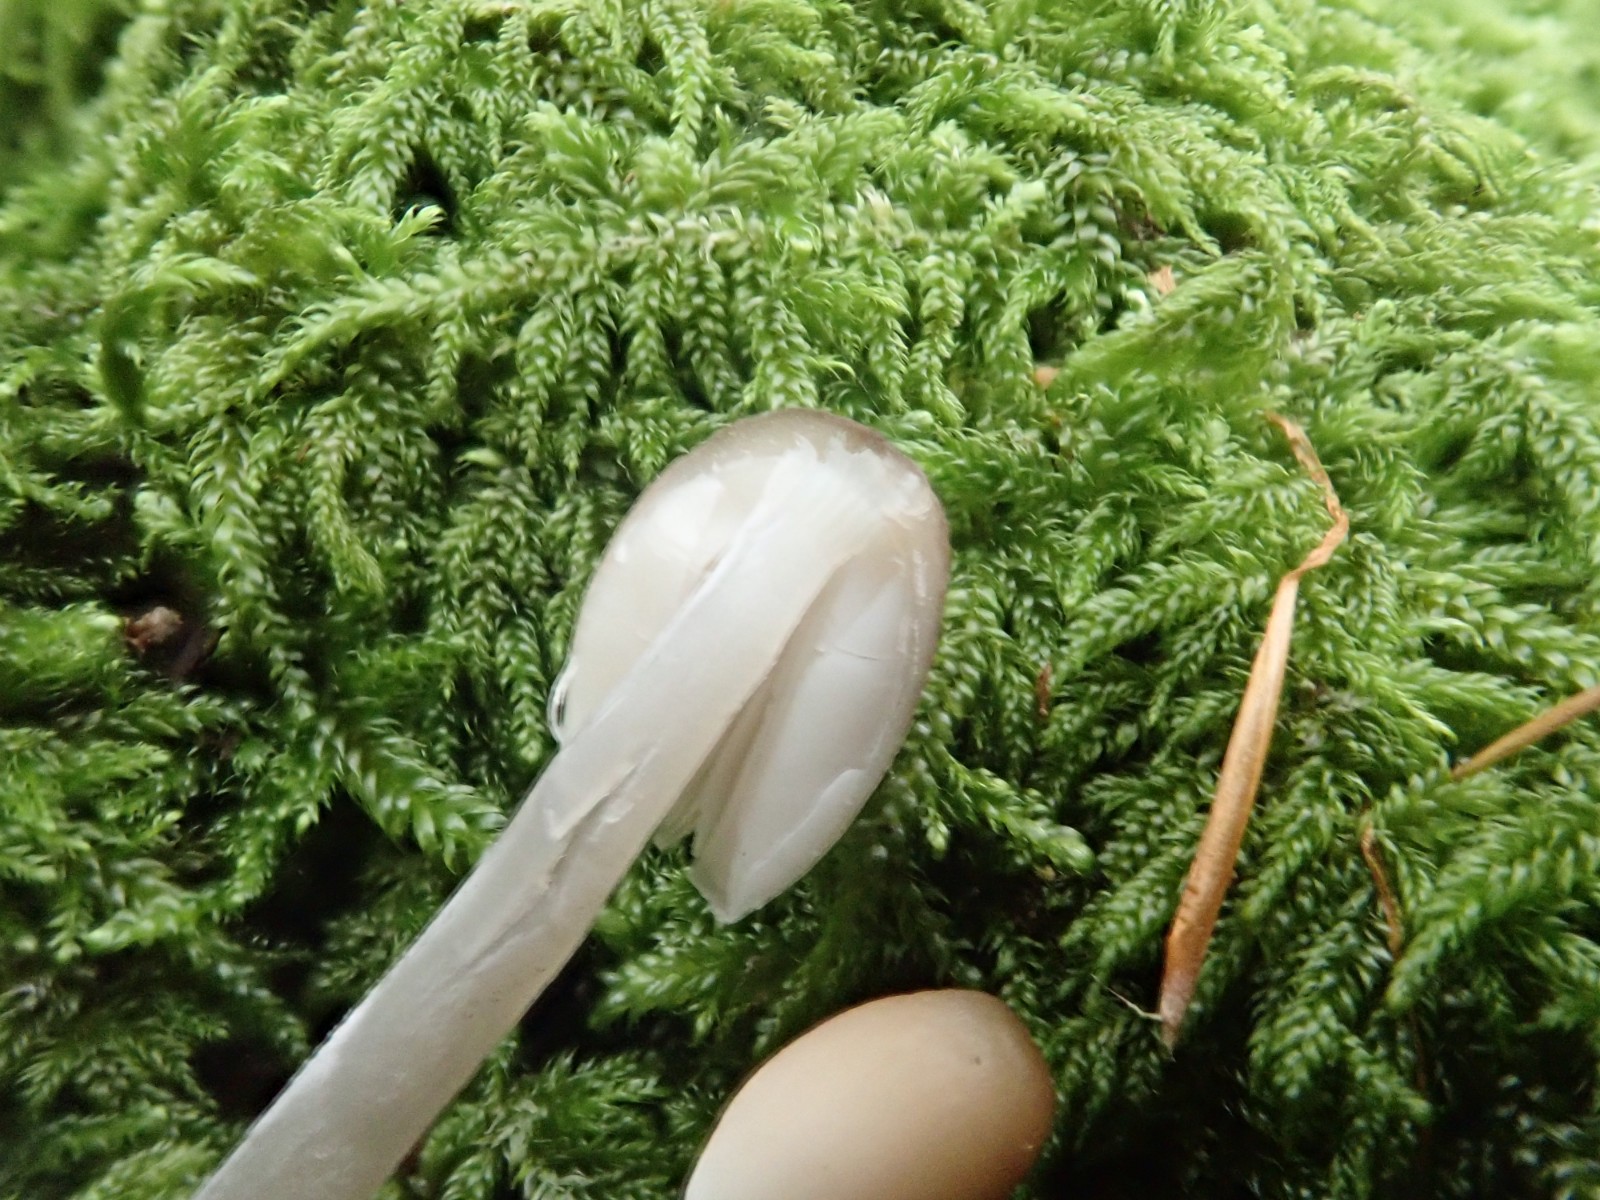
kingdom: Fungi
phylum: Basidiomycota
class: Agaricomycetes
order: Agaricales
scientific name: Agaricales
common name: champignonordenen
